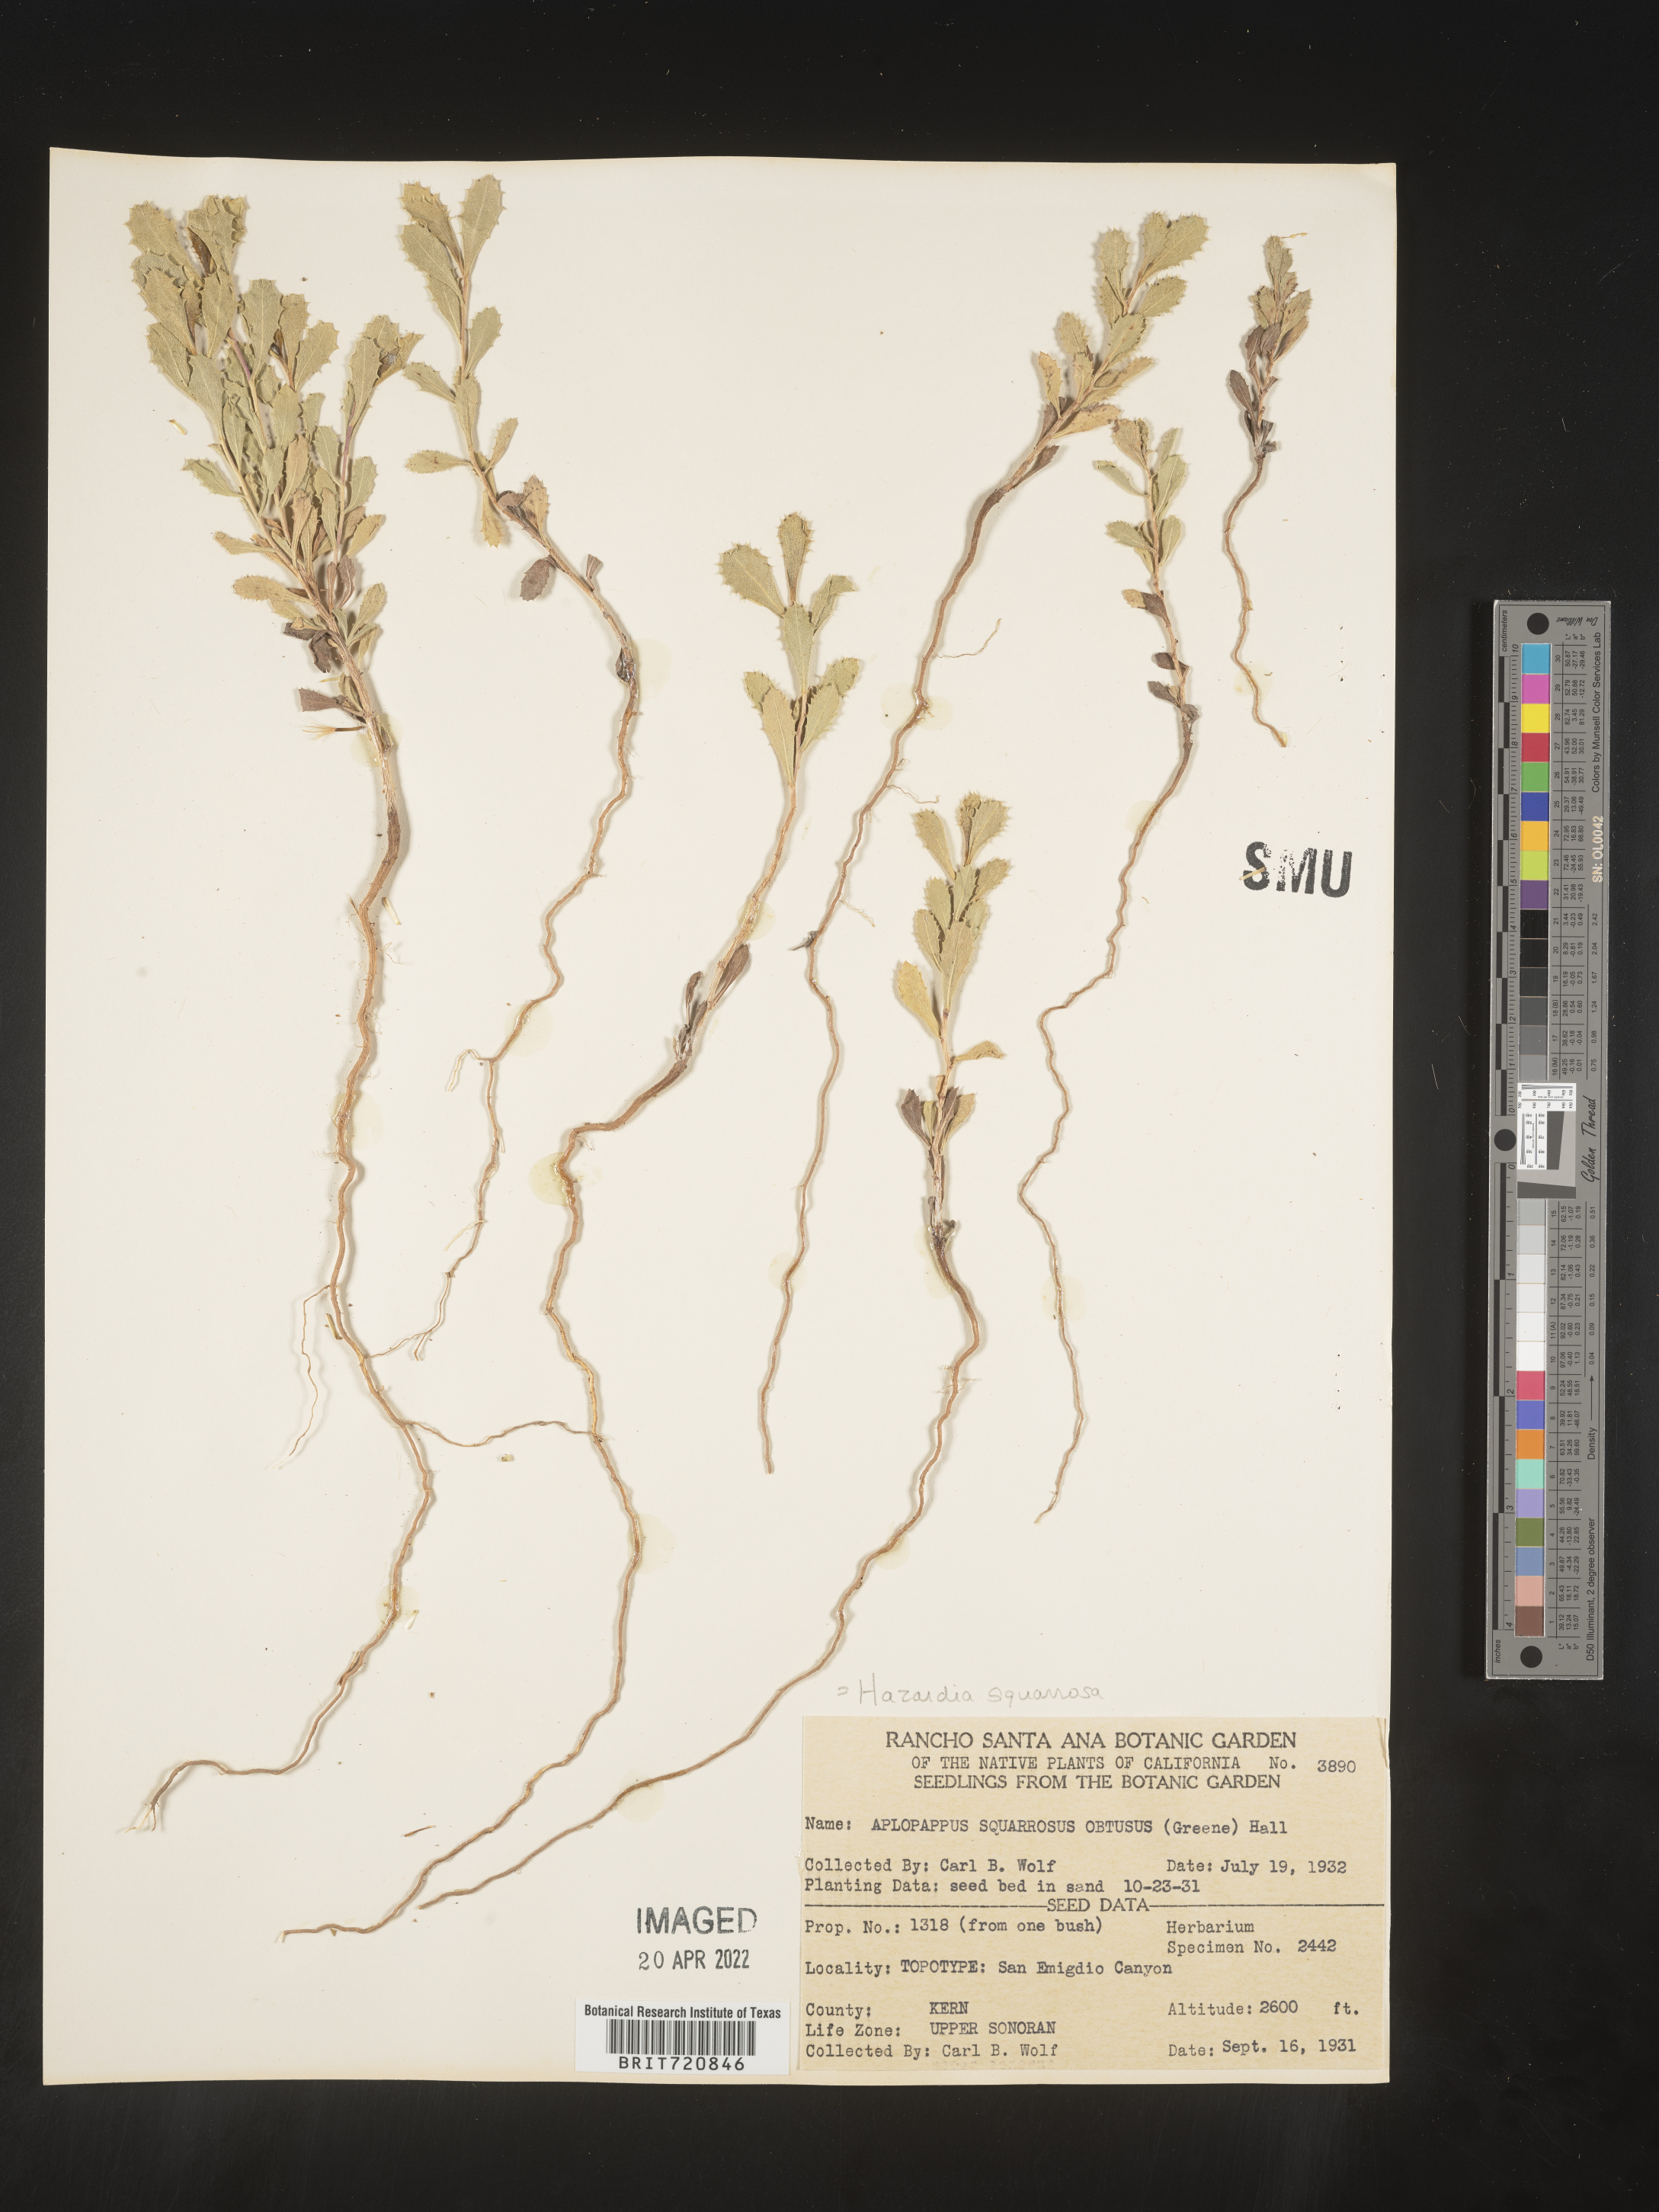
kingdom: Plantae
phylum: Tracheophyta
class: Magnoliopsida
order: Asterales
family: Asteraceae
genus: Hazardia
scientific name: Hazardia squarrosa
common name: Saw-tooth goldenbush
